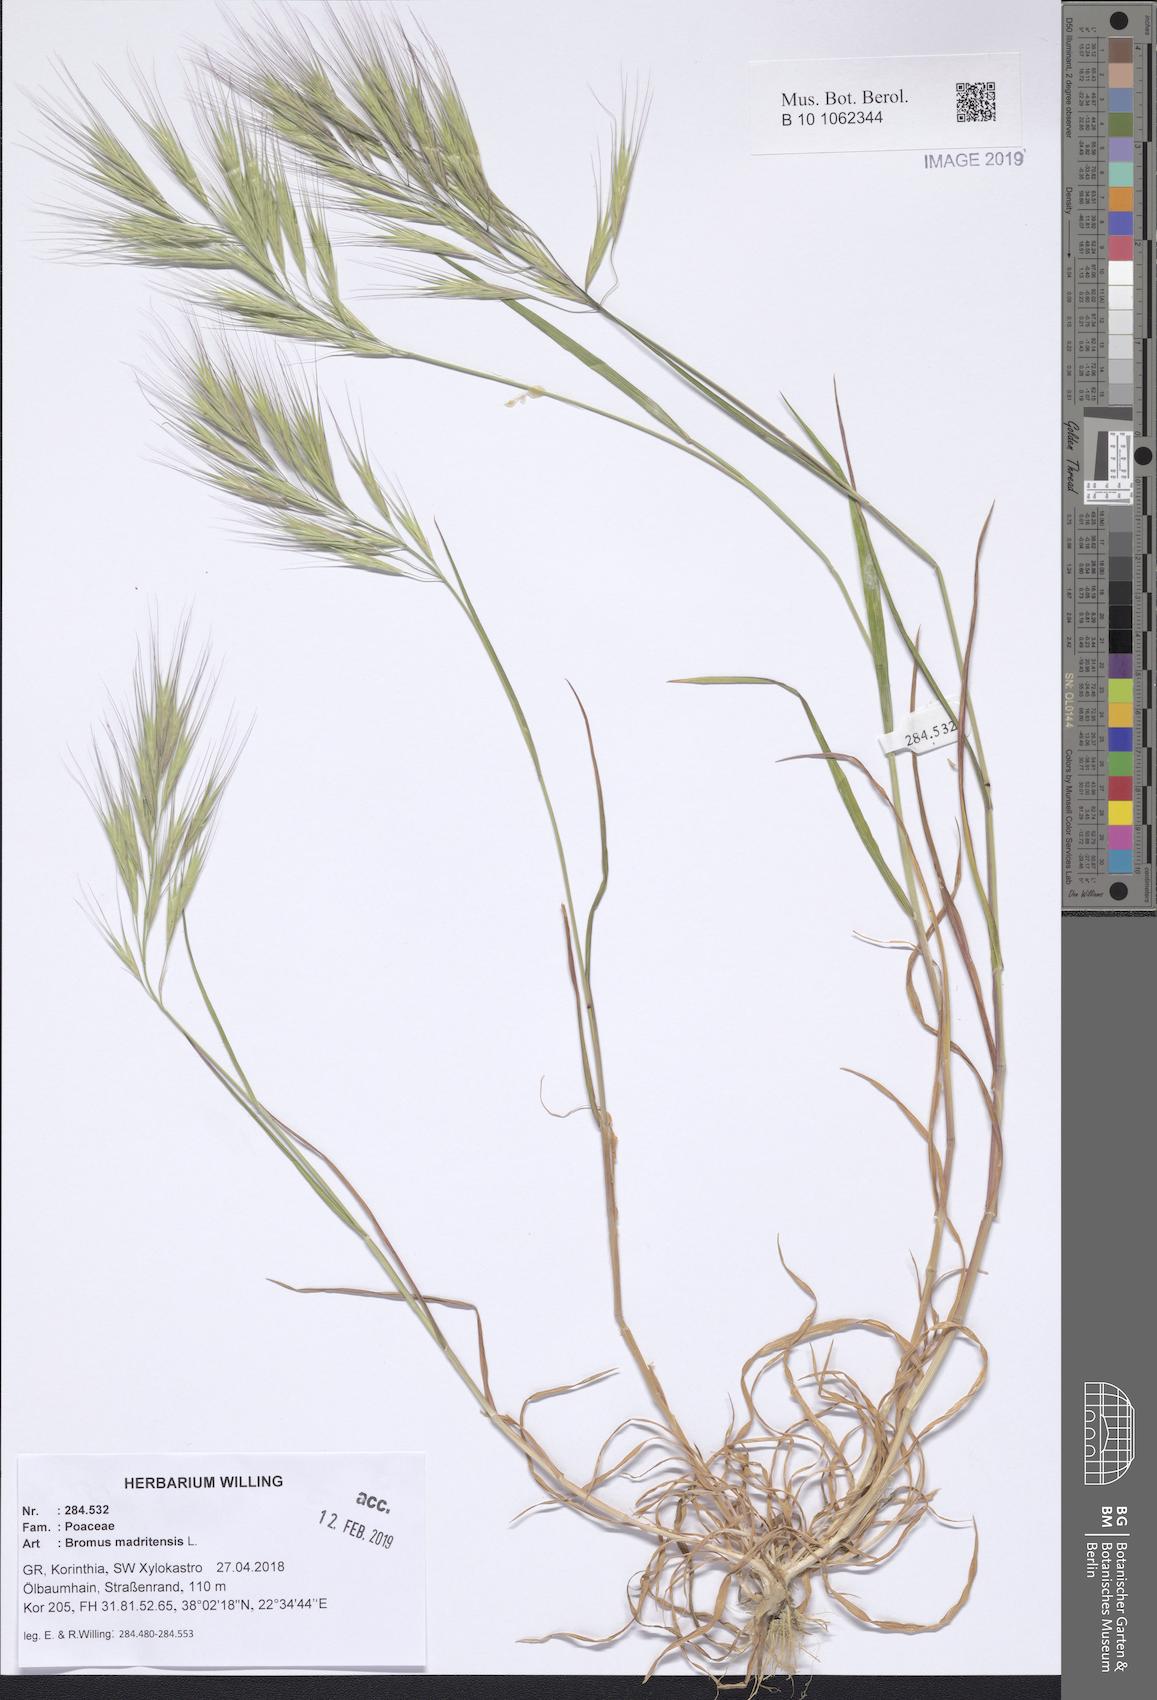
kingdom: Plantae
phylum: Tracheophyta
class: Liliopsida
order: Poales
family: Poaceae
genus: Bromus
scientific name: Bromus madritensis
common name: Compact brome
